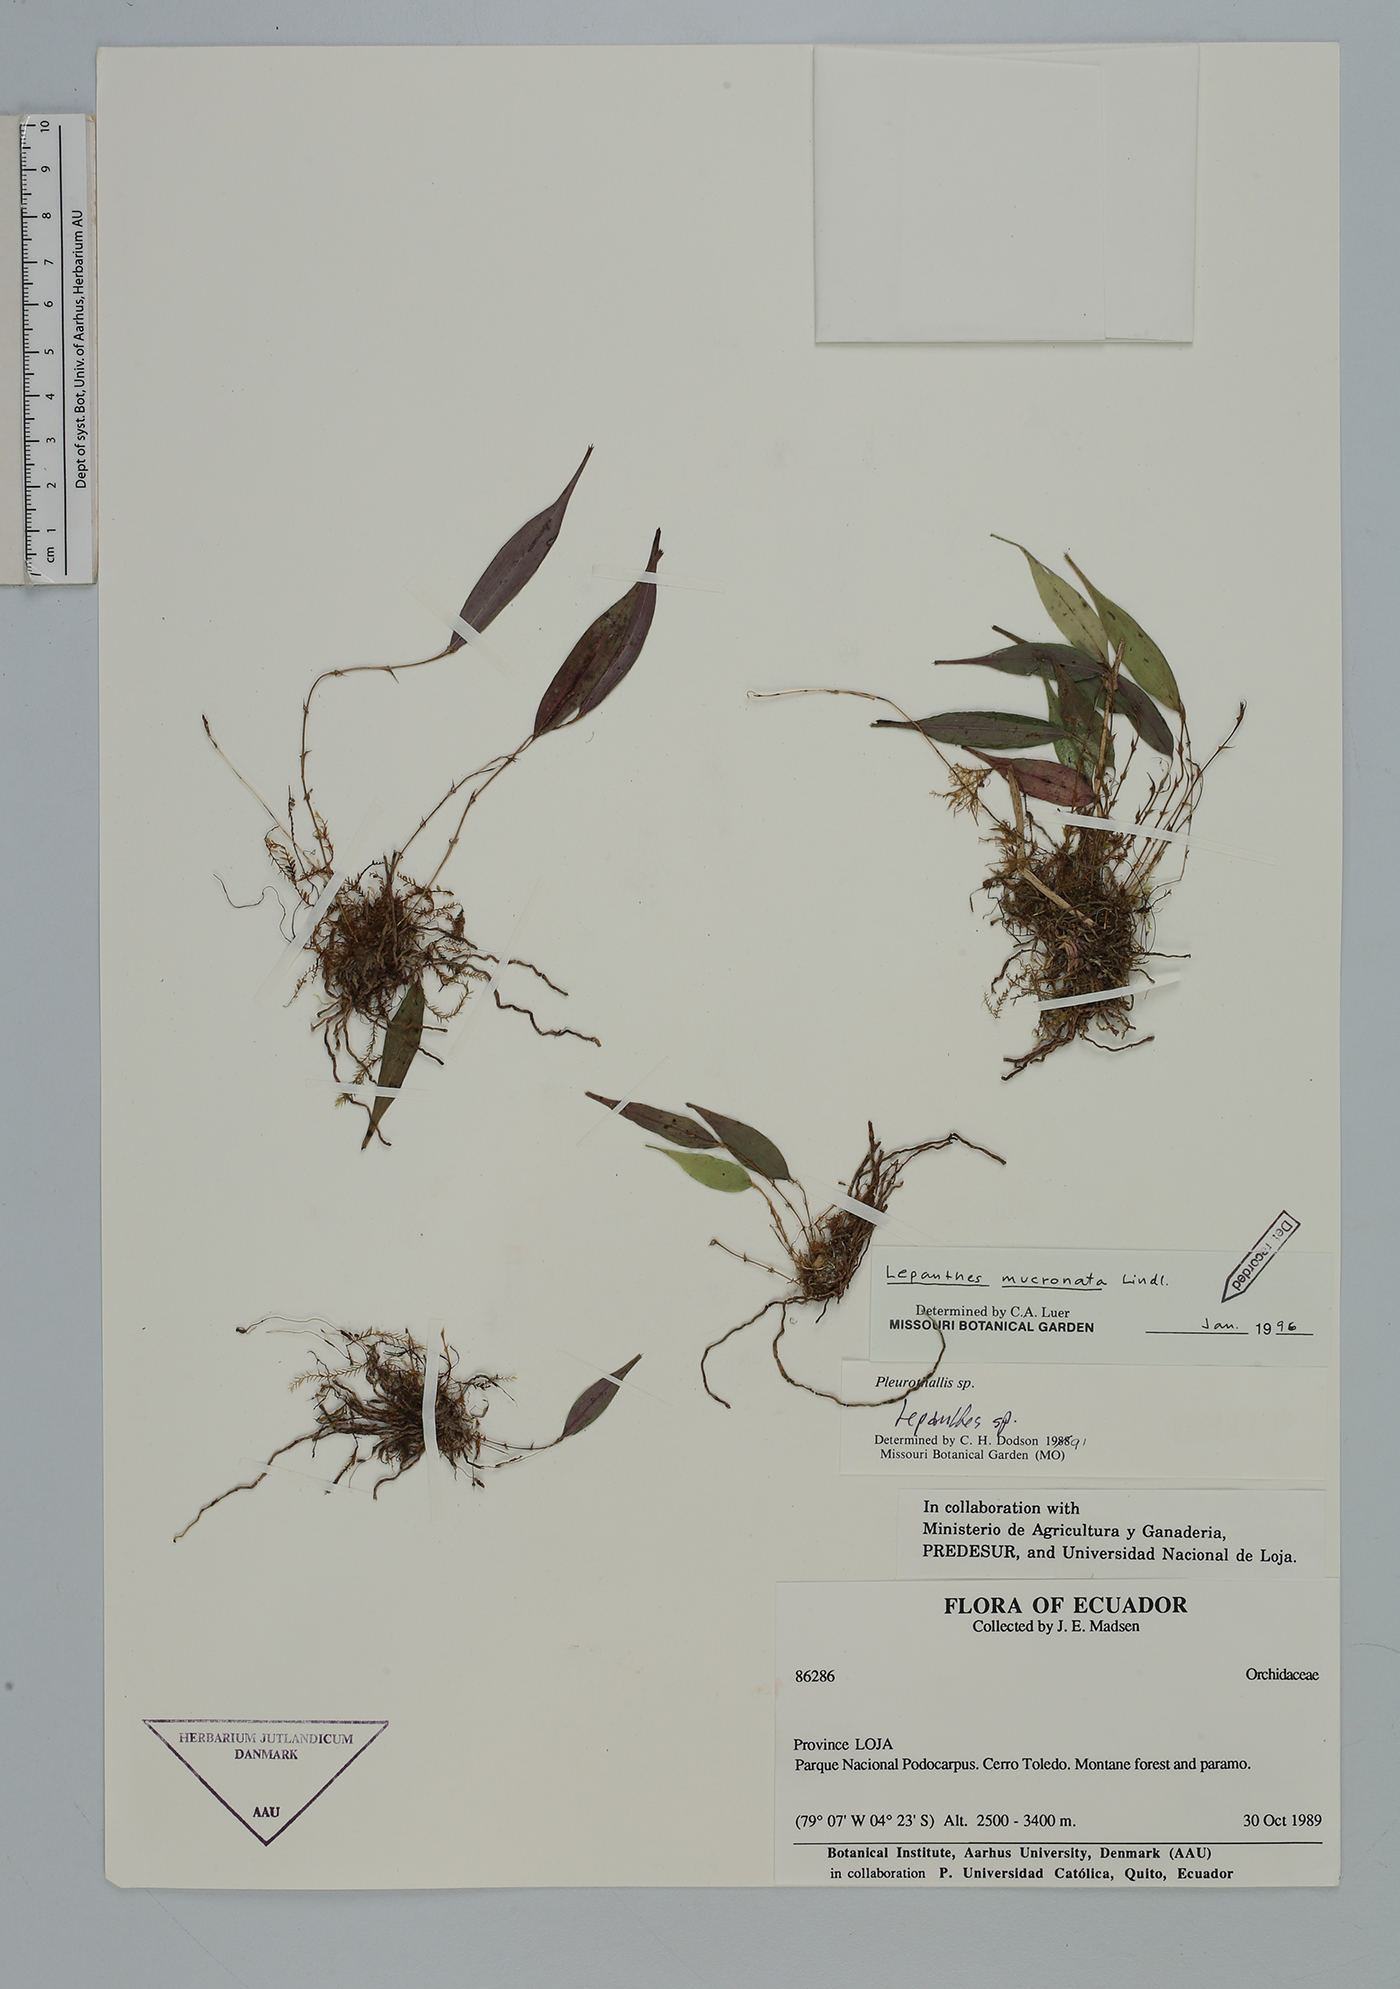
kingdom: Plantae
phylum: Tracheophyta
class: Liliopsida
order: Asparagales
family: Orchidaceae
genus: Lepanthes
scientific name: Lepanthes mucronata
